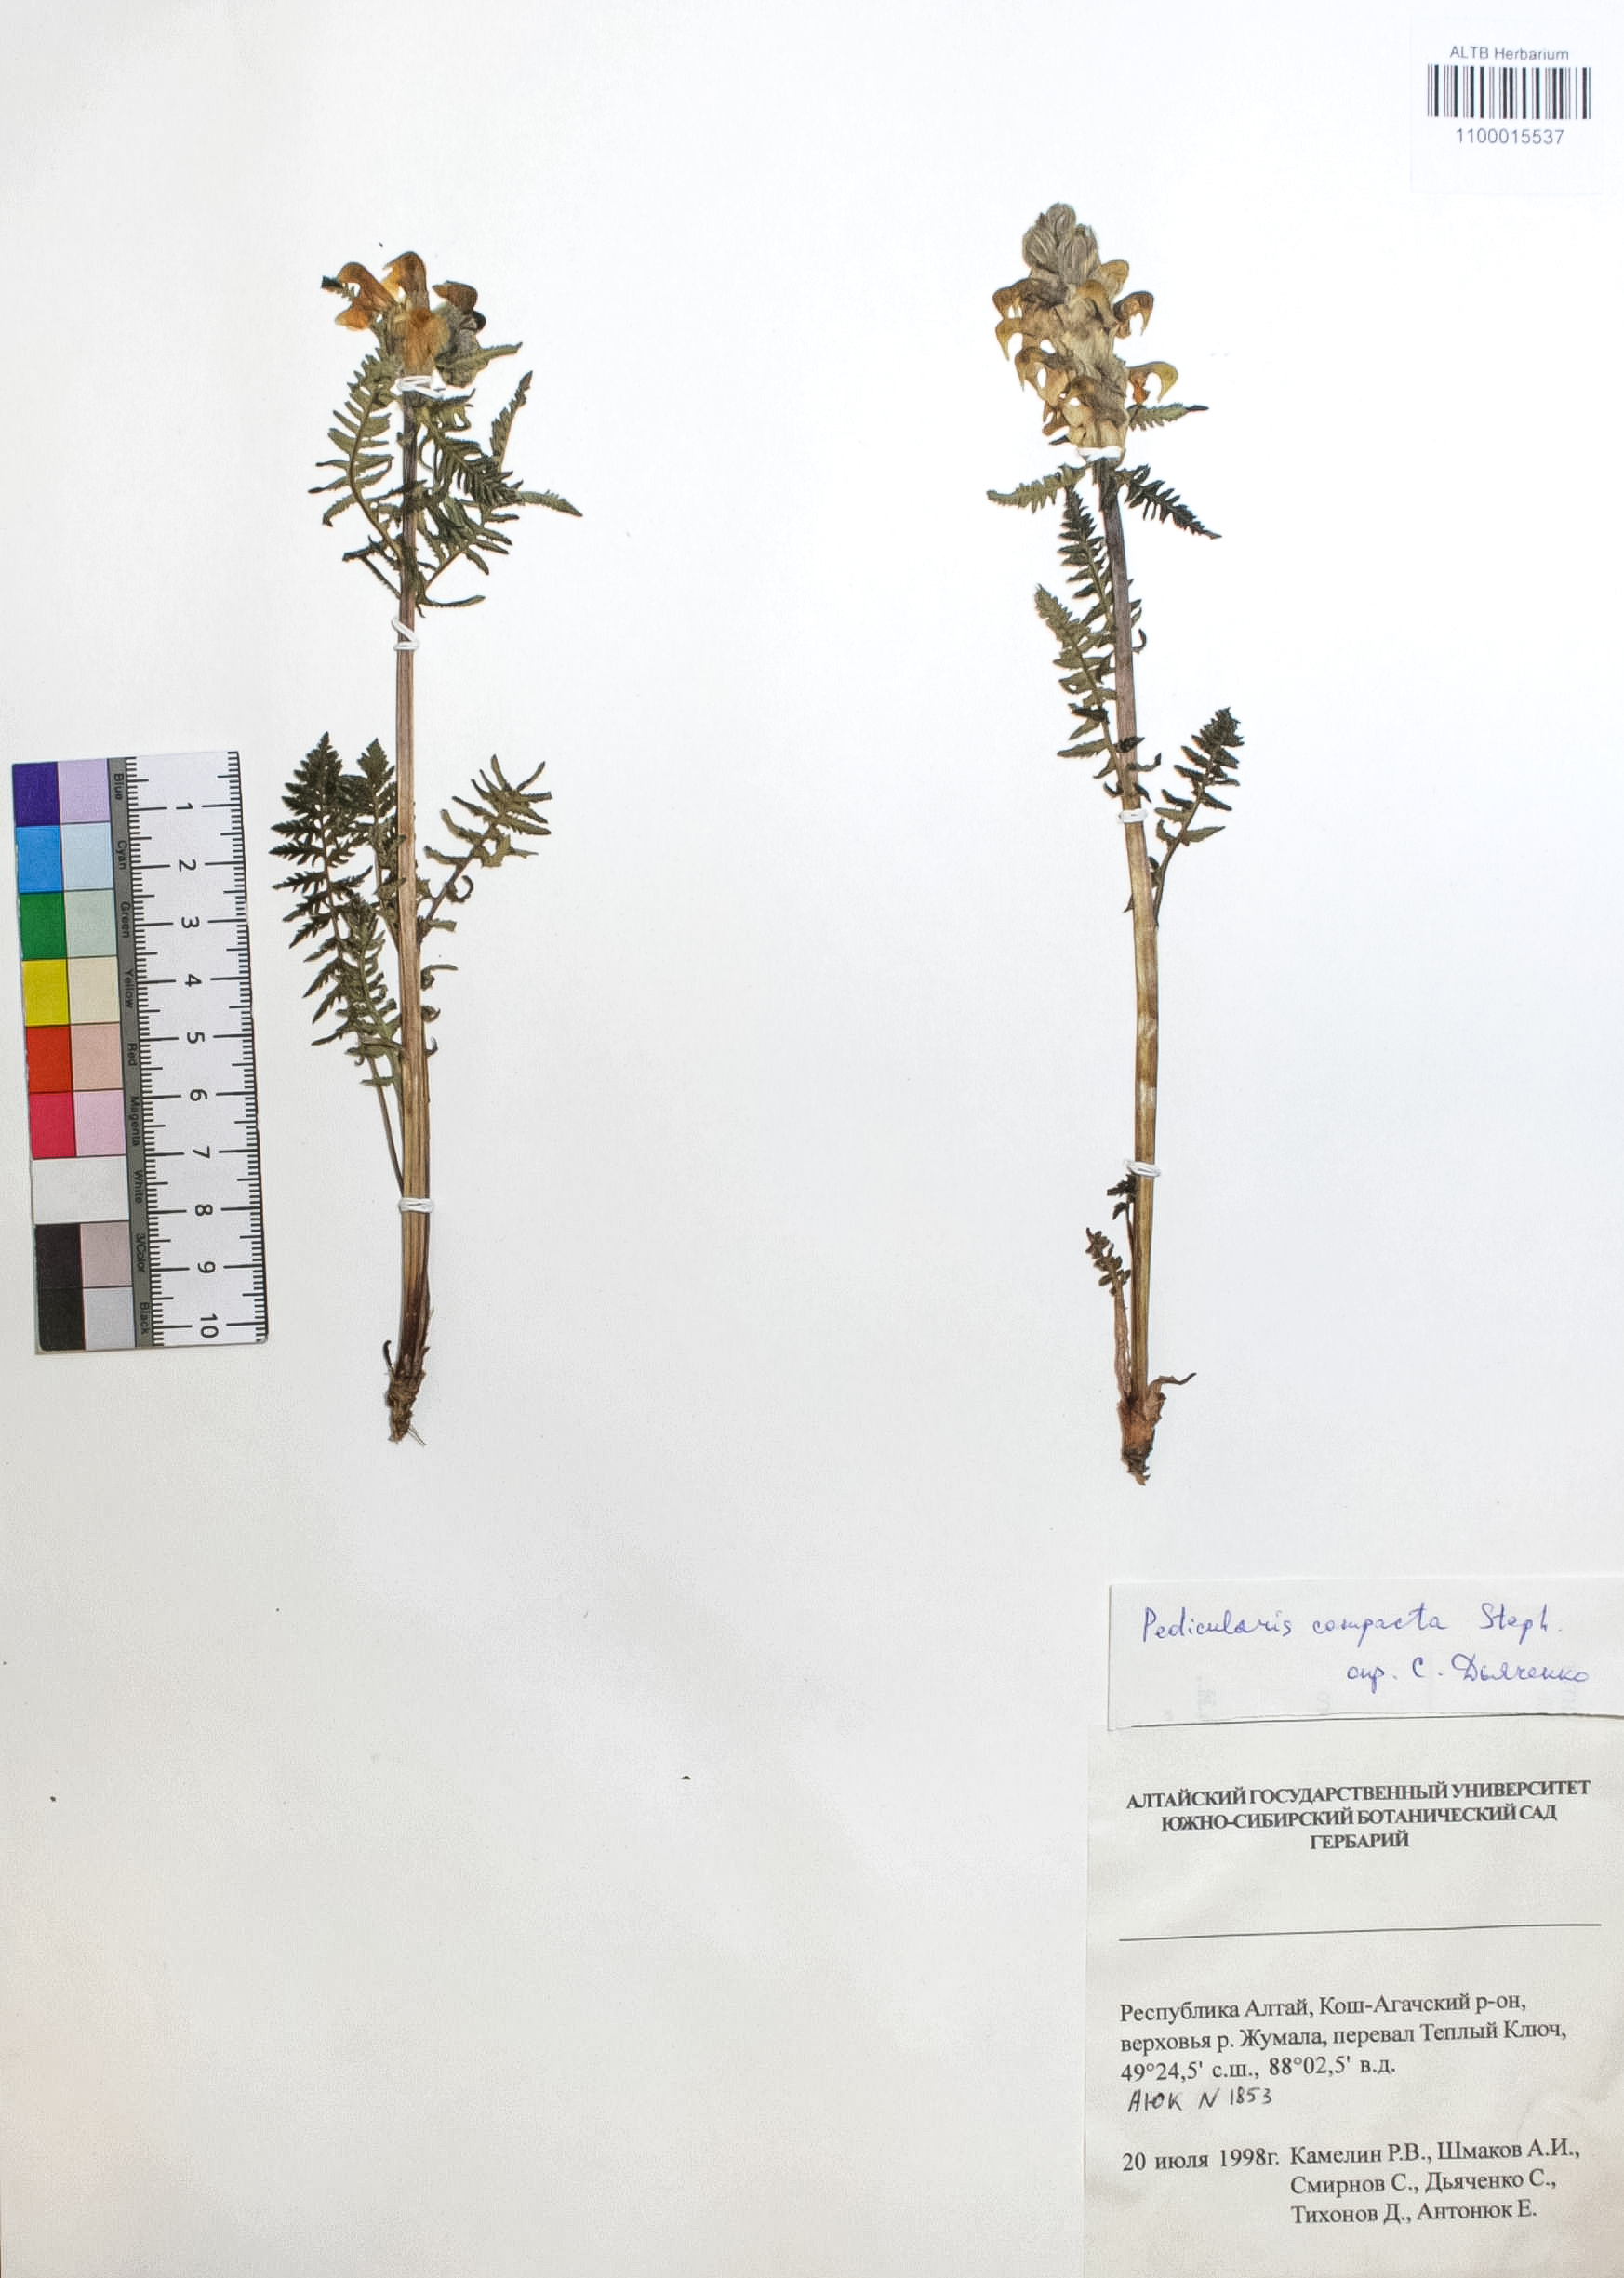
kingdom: Plantae
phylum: Tracheophyta
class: Magnoliopsida
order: Lamiales
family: Orobanchaceae
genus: Pedicularis
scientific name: Pedicularis compacta
